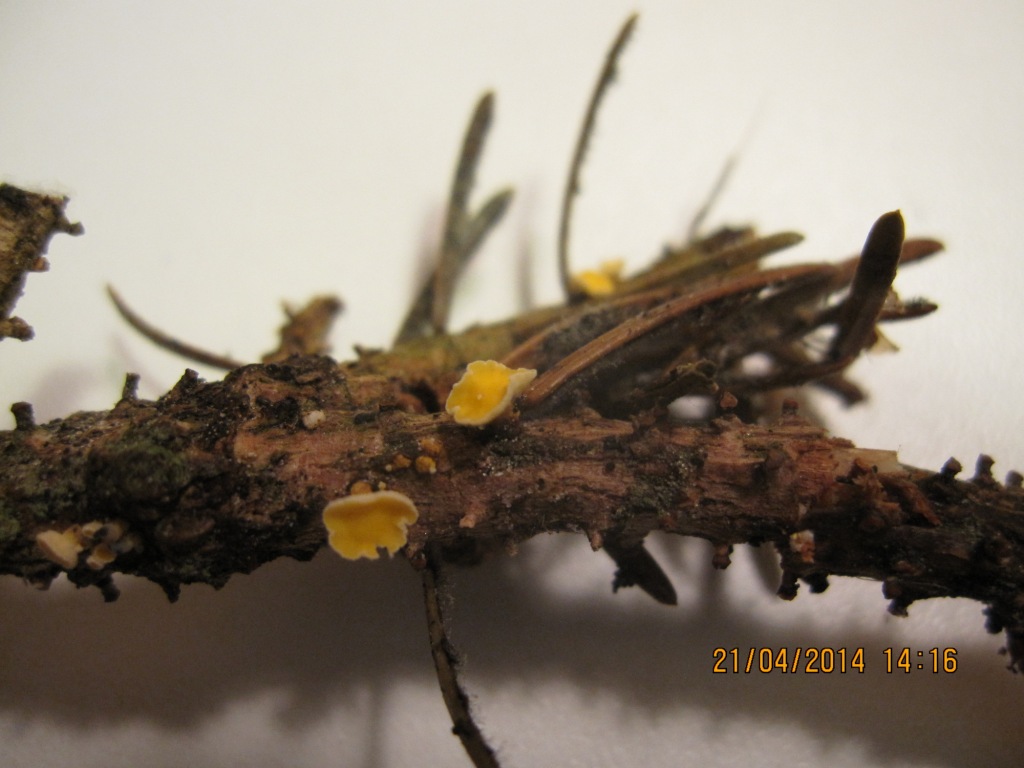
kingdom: Fungi
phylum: Ascomycota
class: Leotiomycetes
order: Helotiales
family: Lachnaceae
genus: Lachnellula
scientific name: Lachnellula subtilissima
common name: gran-frynseskive
